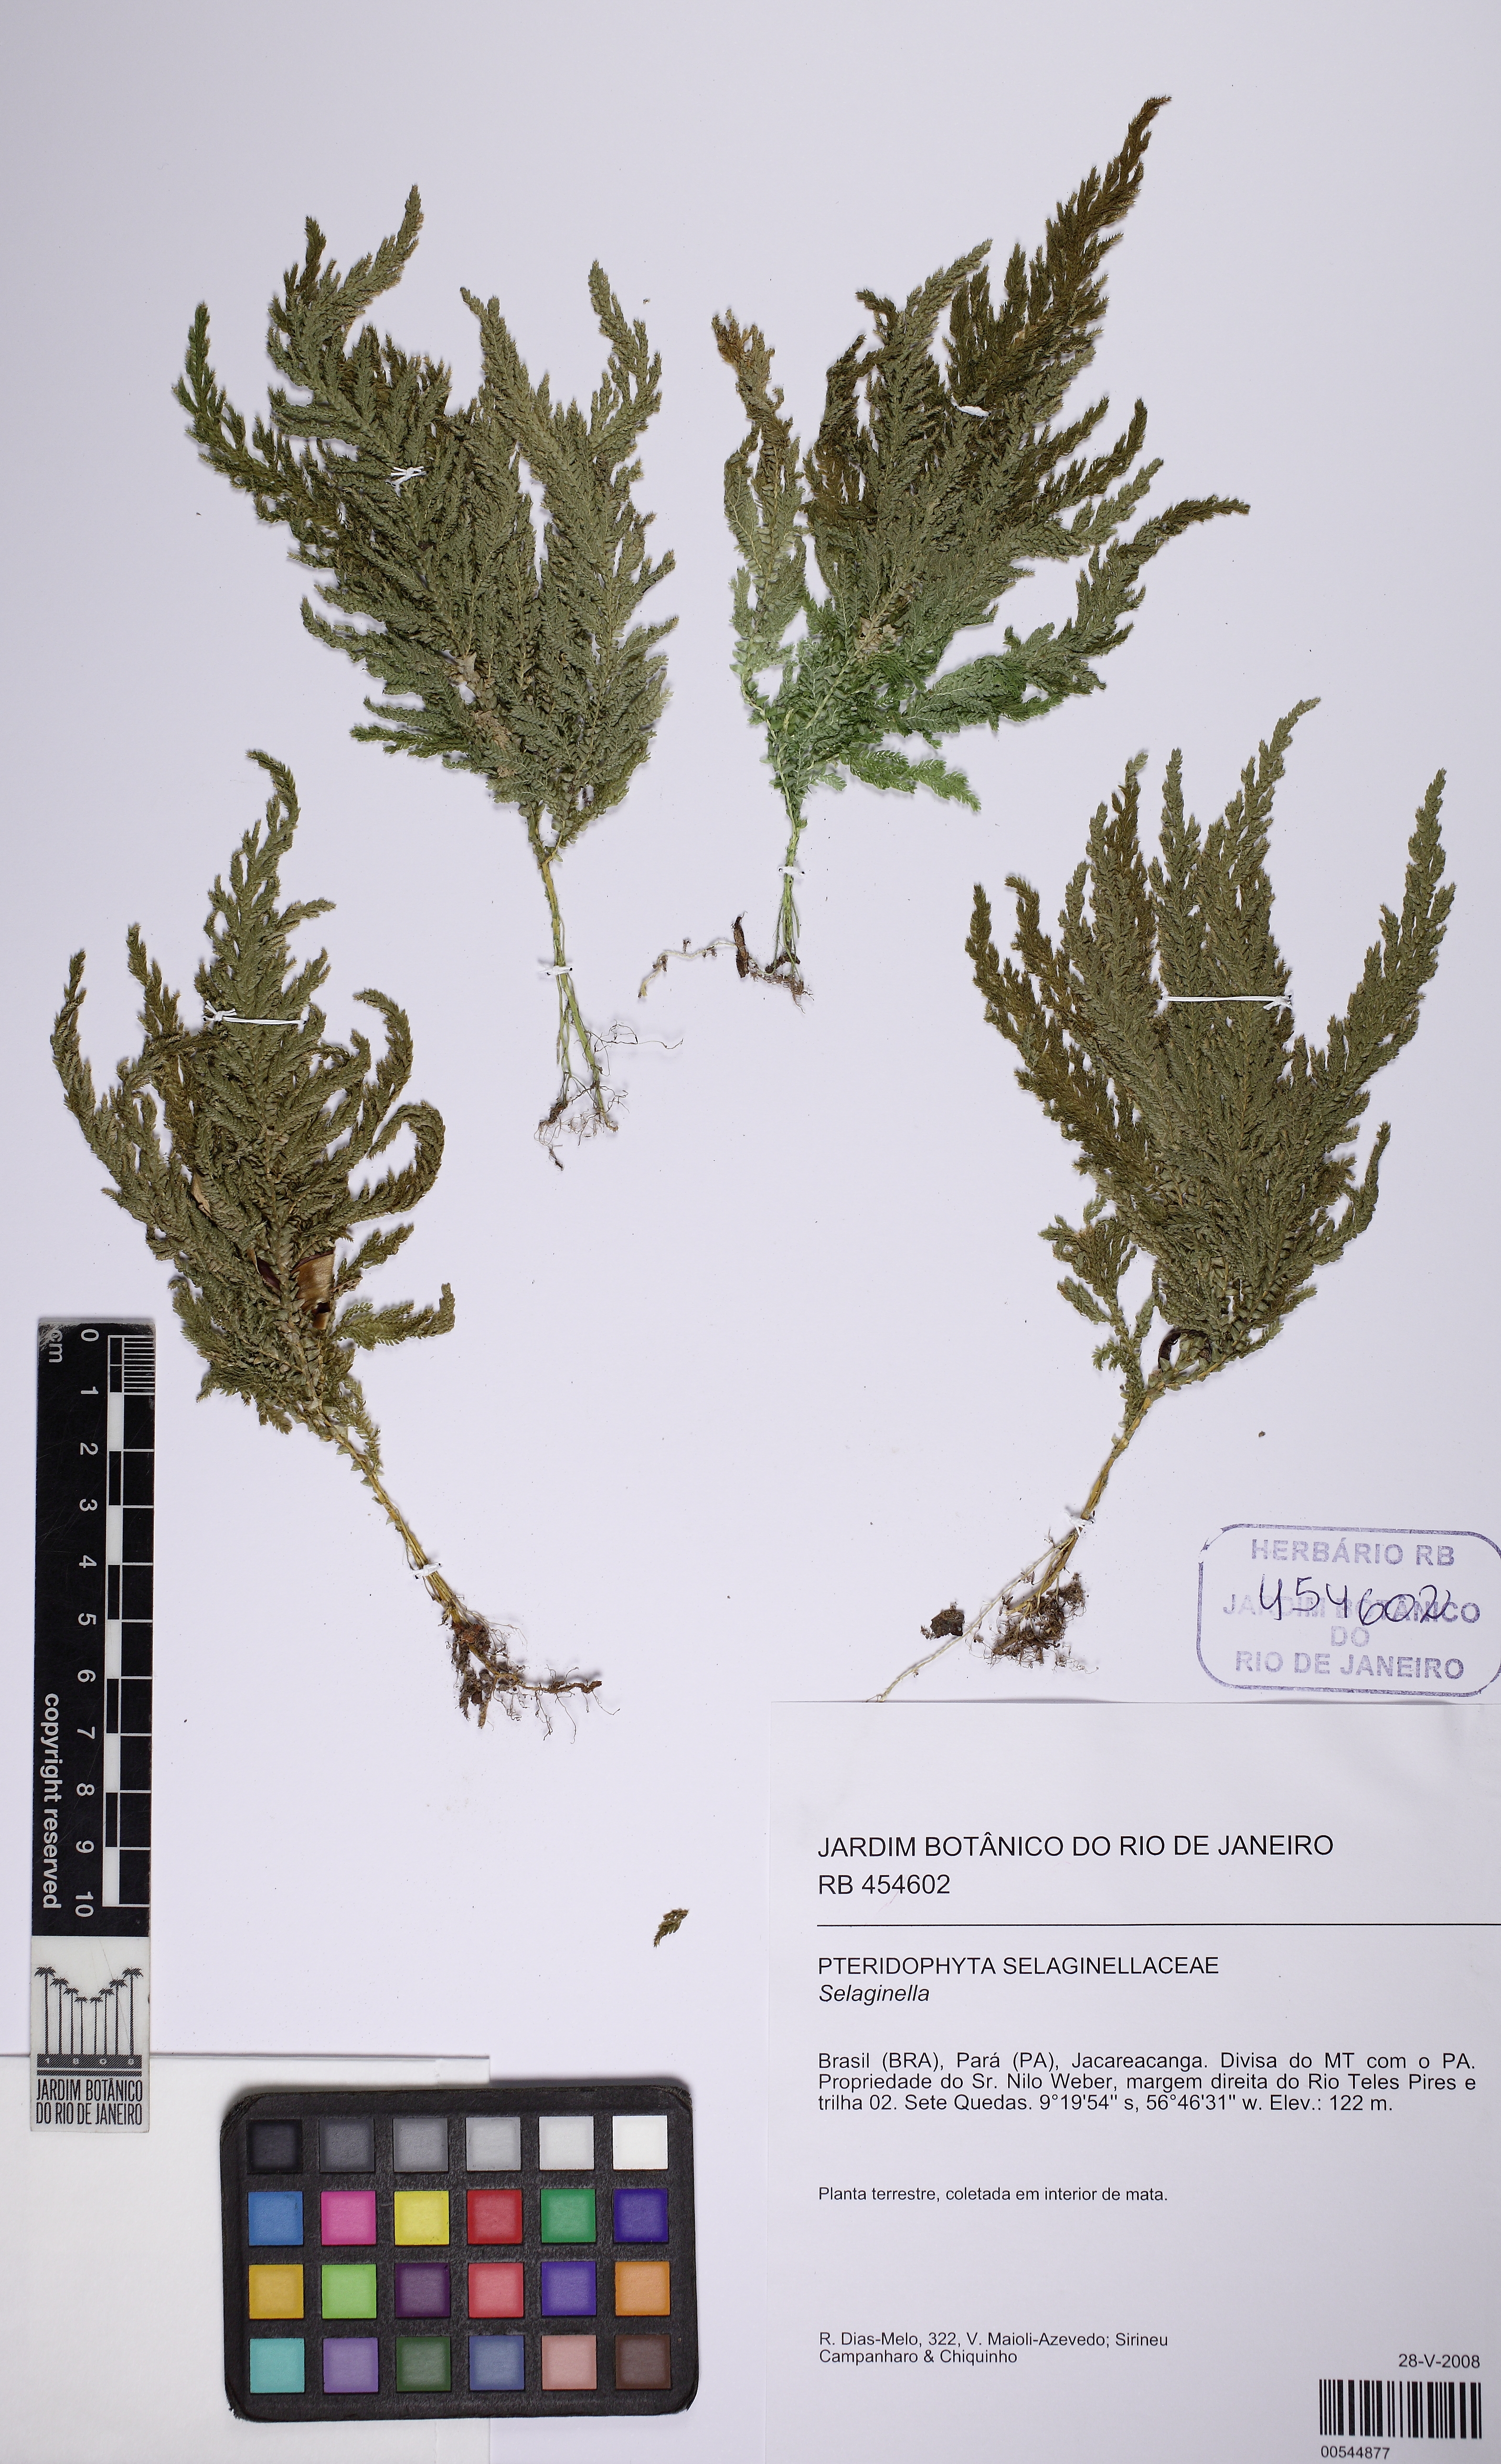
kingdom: Plantae
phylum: Tracheophyta
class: Lycopodiopsida
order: Selaginellales
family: Selaginellaceae
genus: Selaginella
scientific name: Selaginella radiata
